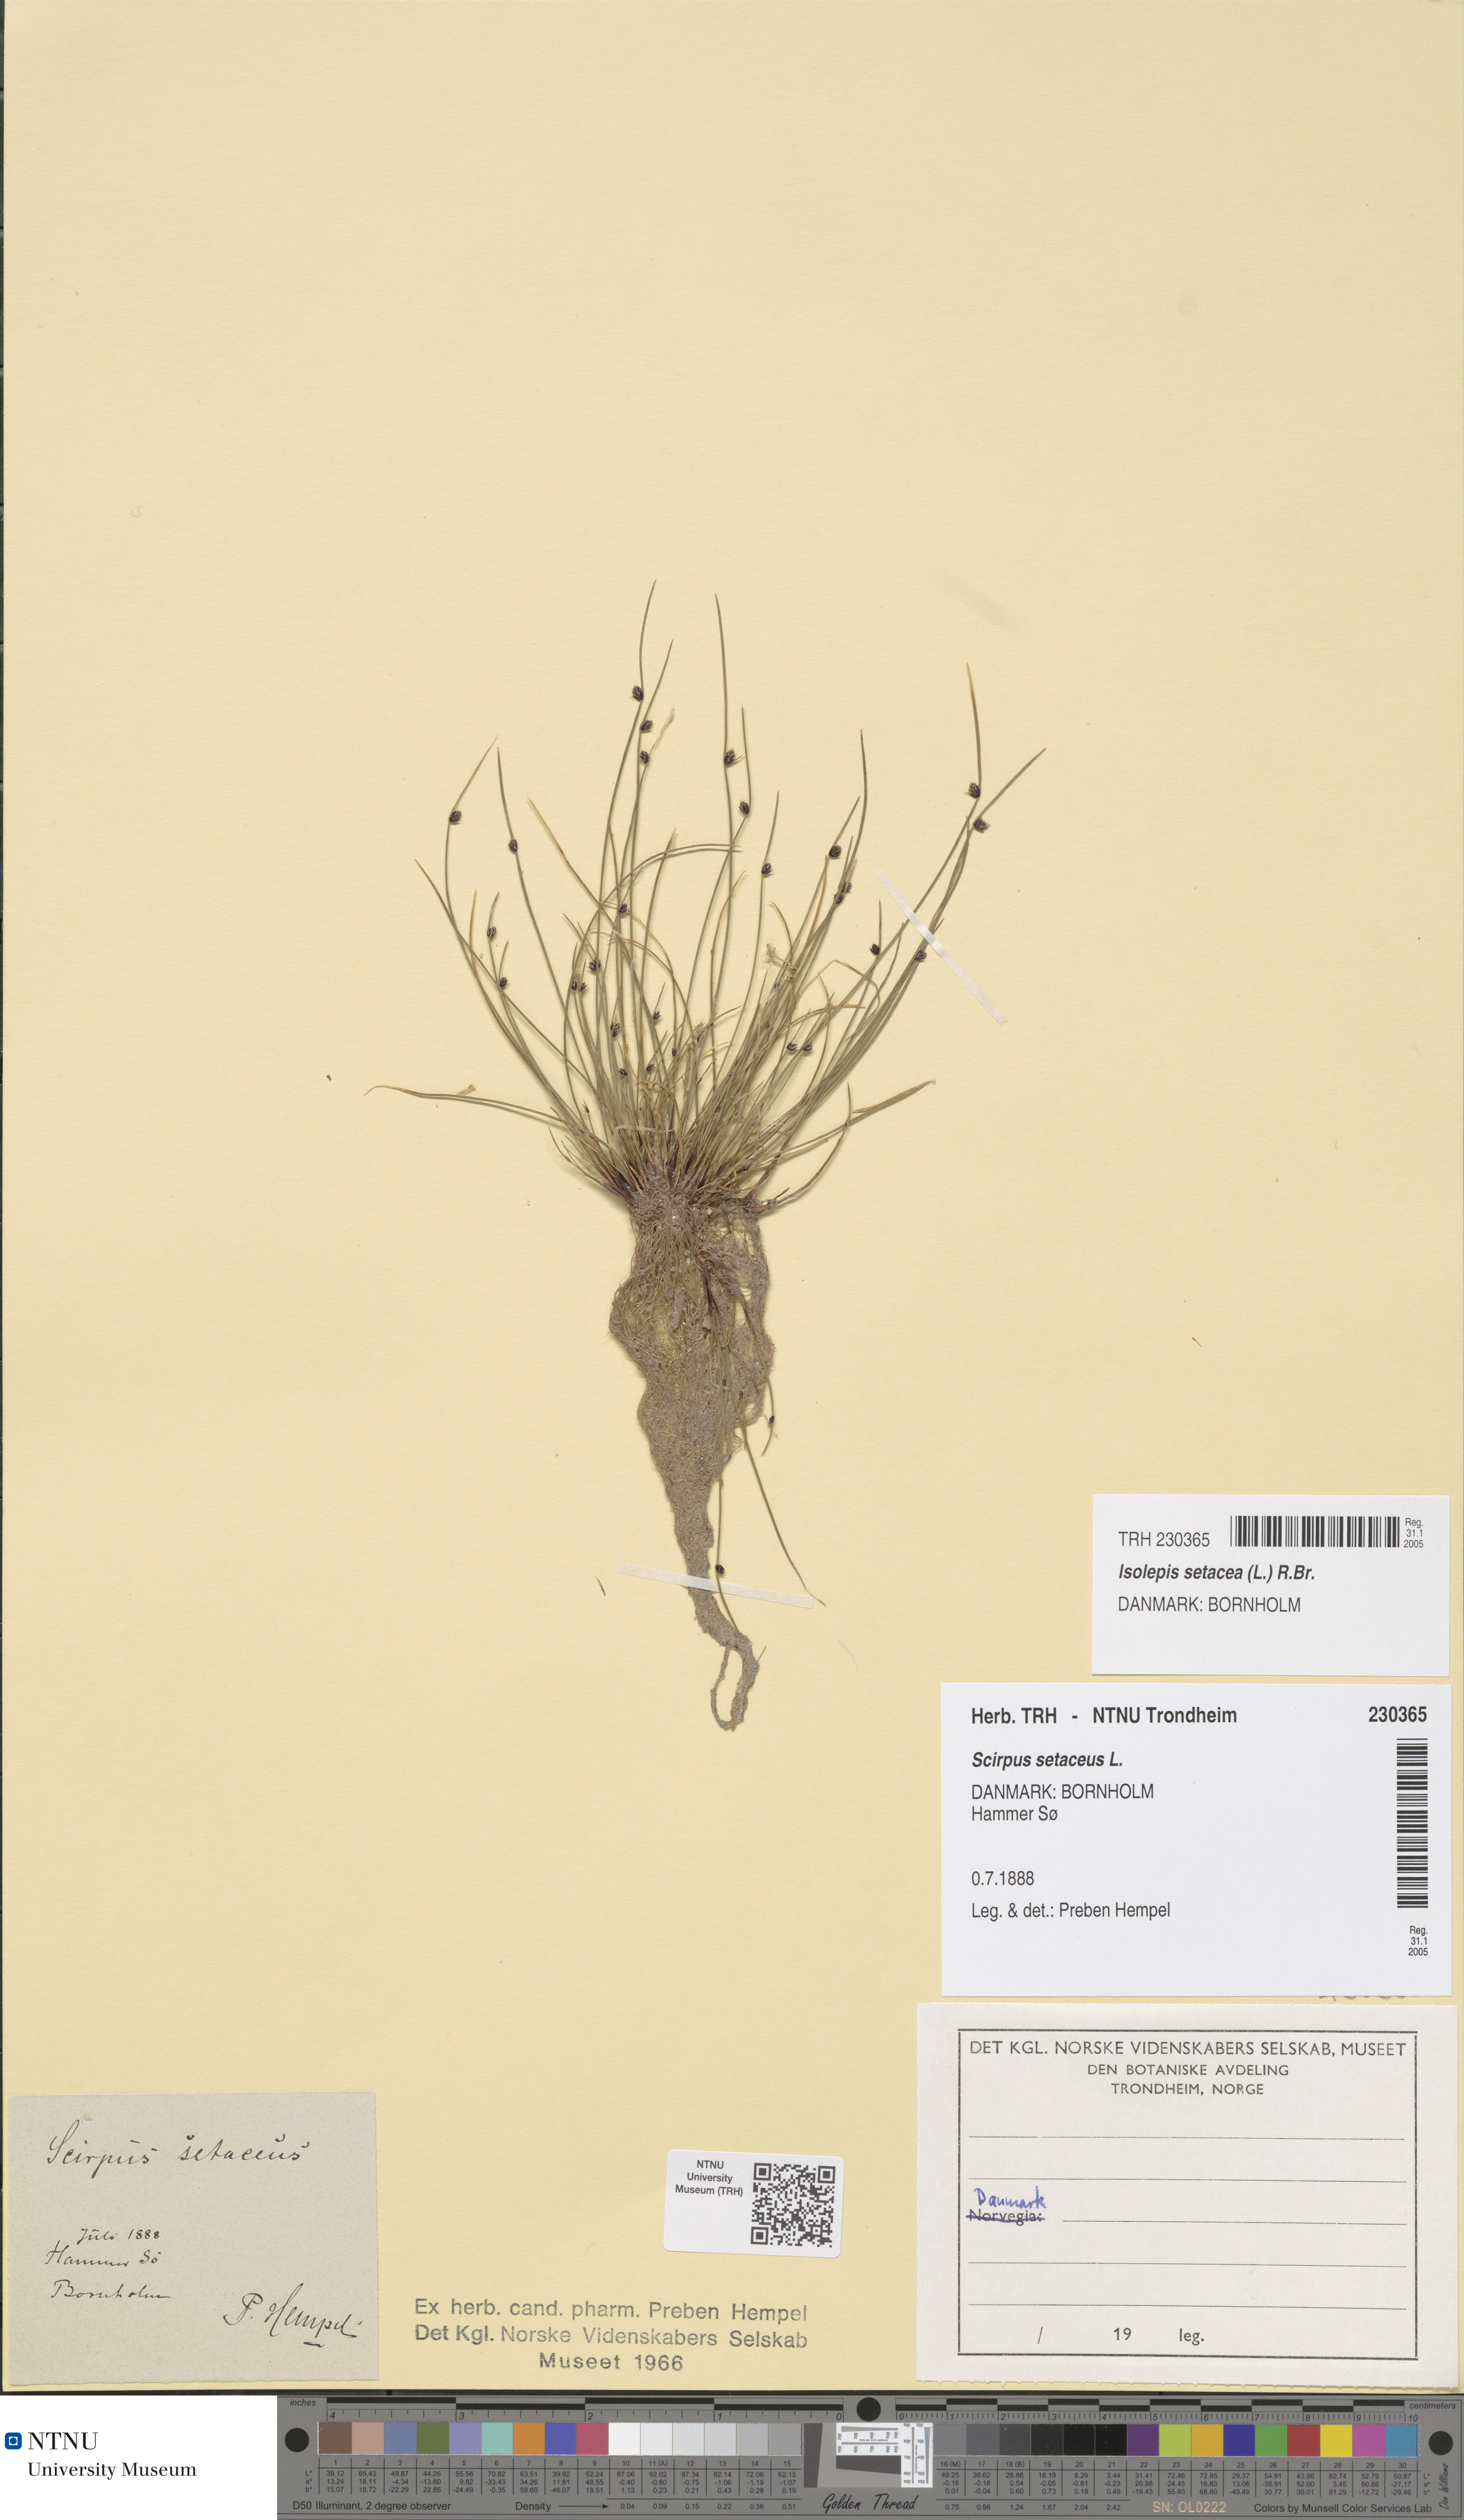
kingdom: Plantae
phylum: Tracheophyta
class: Liliopsida
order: Poales
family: Cyperaceae
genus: Isolepis
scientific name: Isolepis setacea
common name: Bristle club-rush
